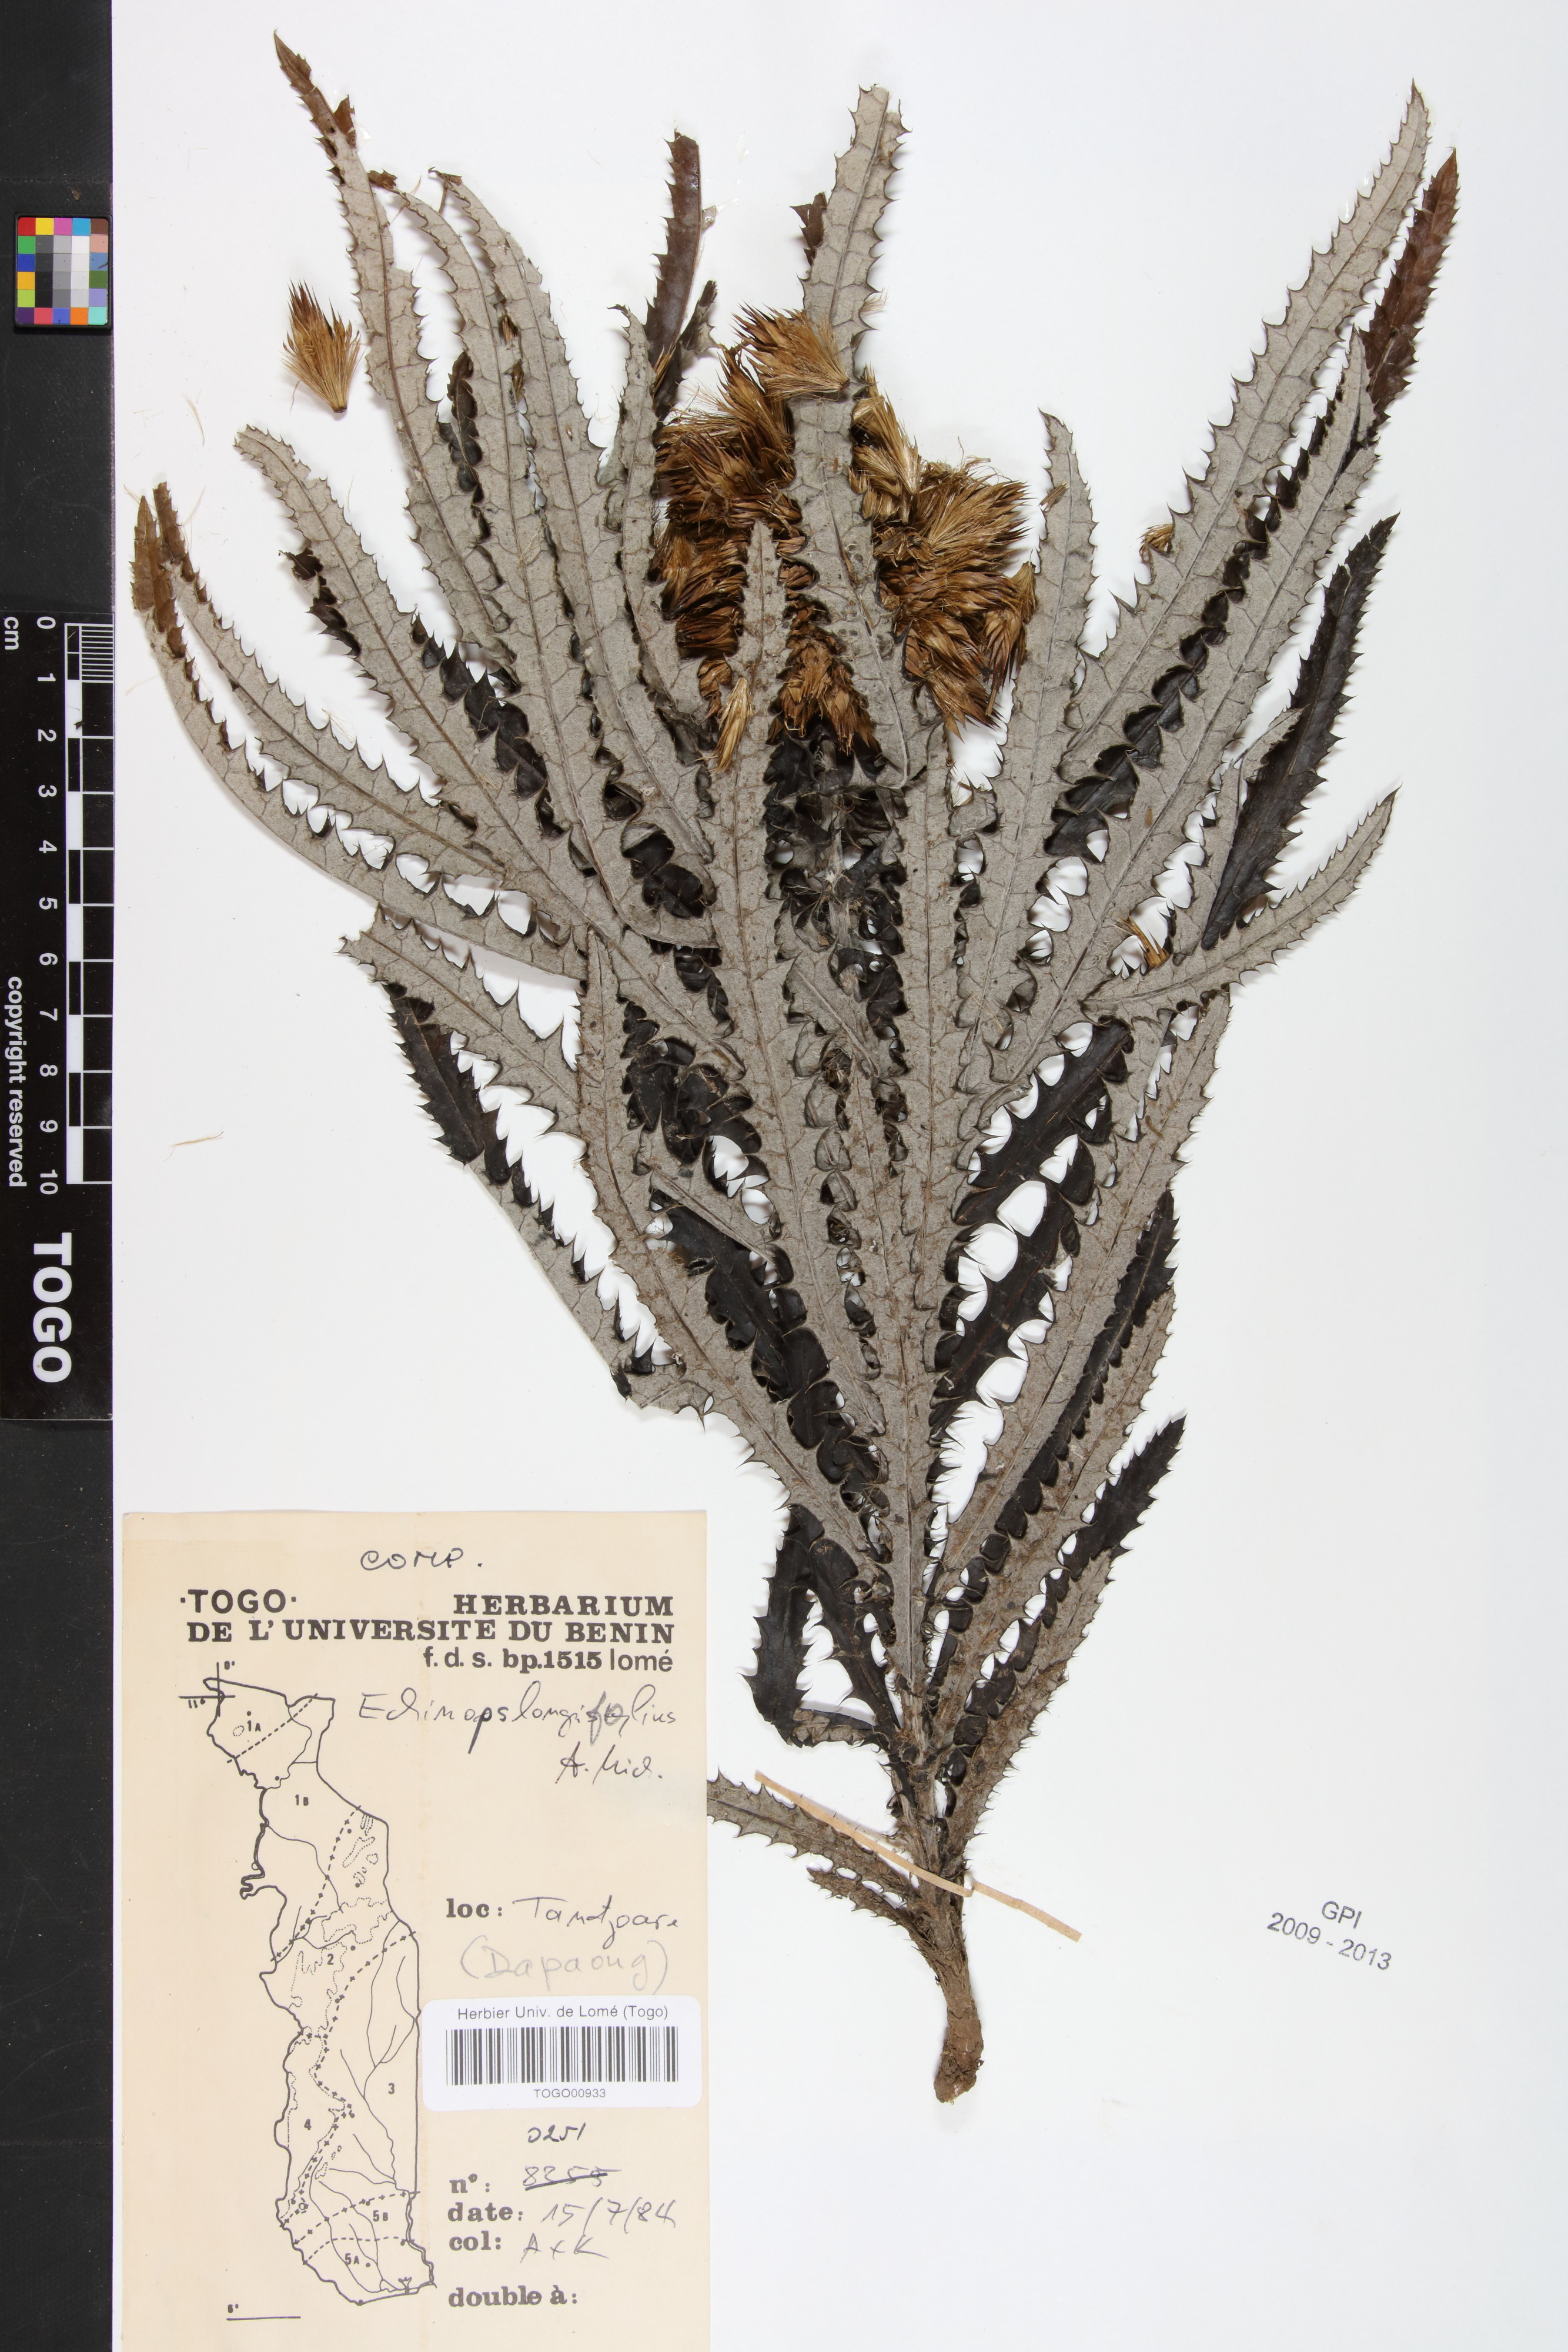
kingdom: Plantae
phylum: Tracheophyta
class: Magnoliopsida
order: Asterales
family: Asteraceae
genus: Echinops
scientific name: Echinops longifolius
